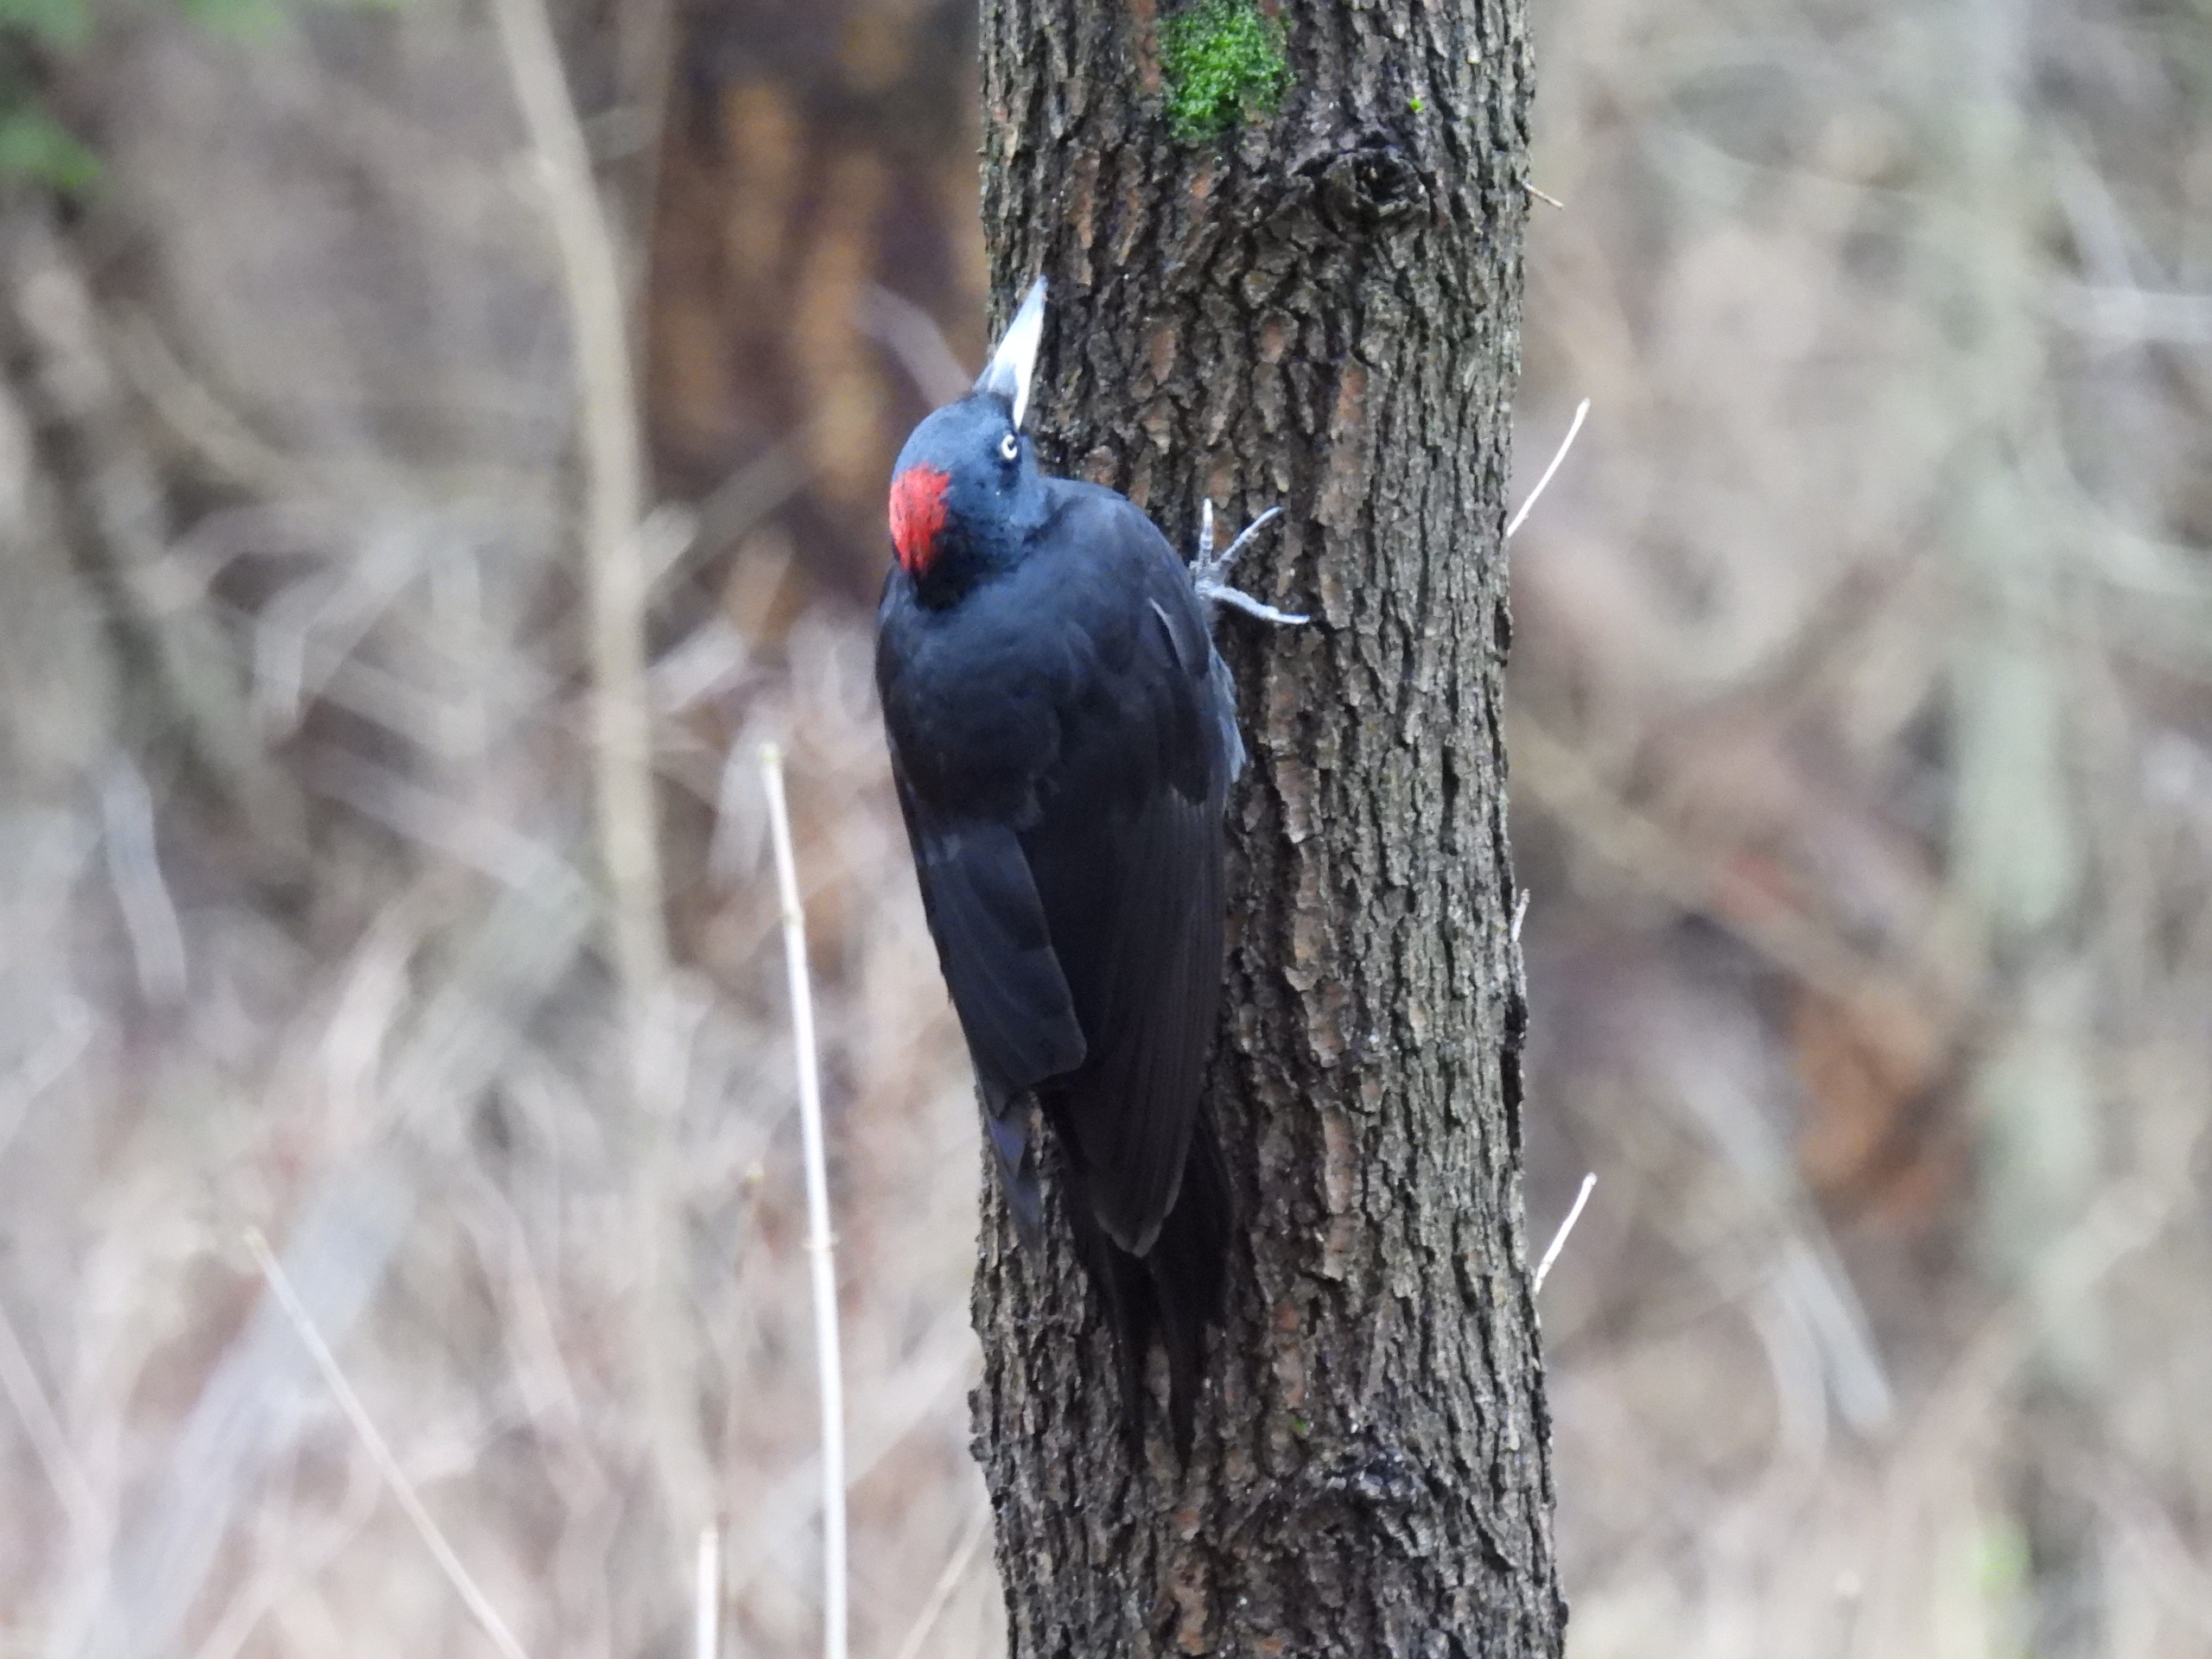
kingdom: Animalia
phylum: Chordata
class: Aves
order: Piciformes
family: Picidae
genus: Dryocopus
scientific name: Dryocopus martius
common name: Sortspætte
